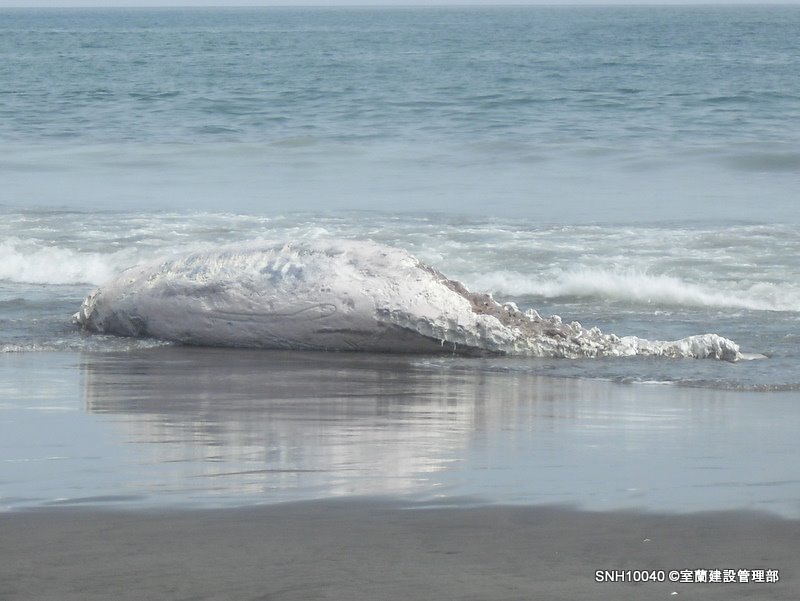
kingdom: Animalia
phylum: Chordata
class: Mammalia
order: Cetacea
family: Hyperoodontidae
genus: Ziphius
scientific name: Ziphius cavirostris
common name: Cuvier's beaked whale
